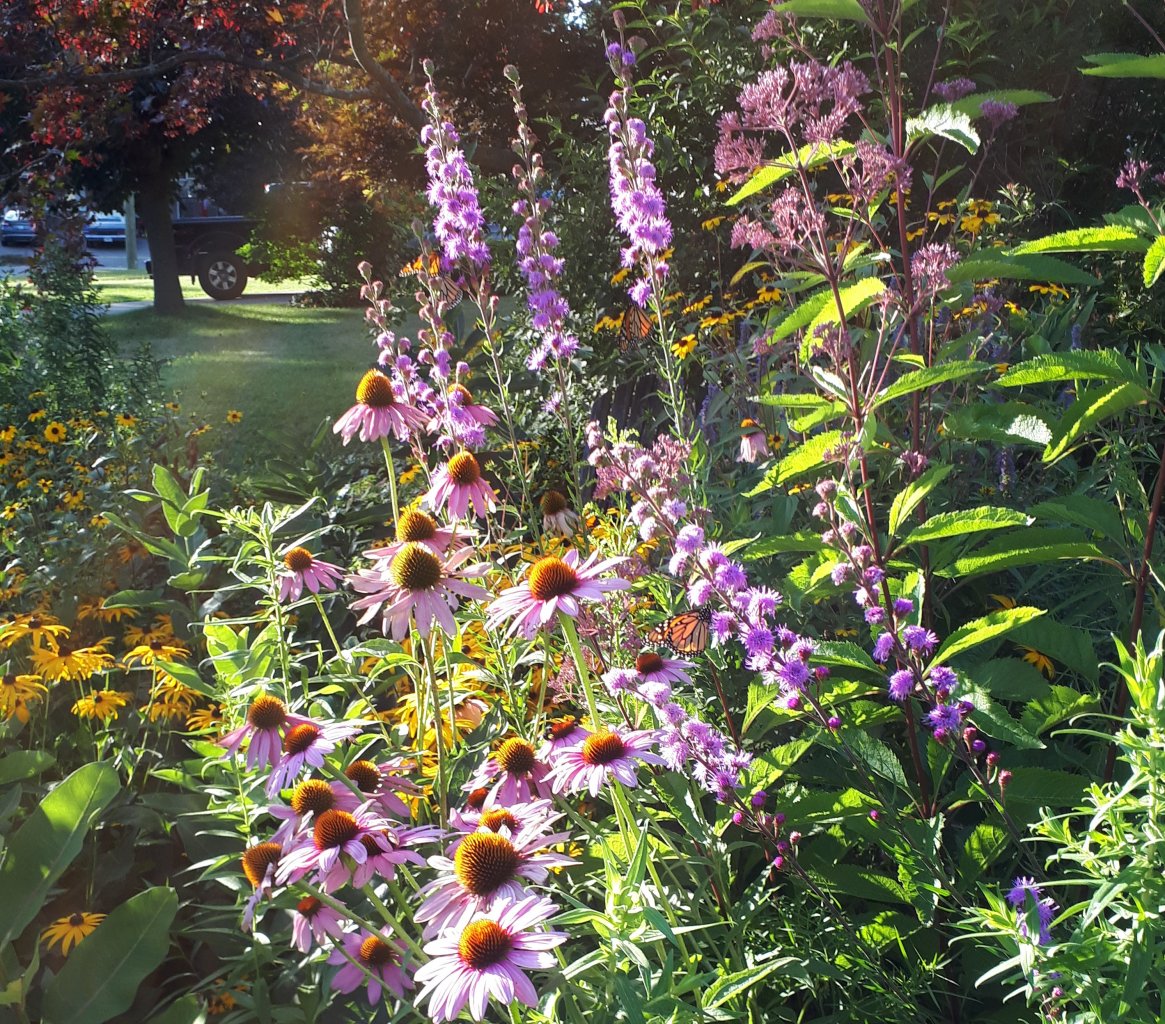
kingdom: Animalia
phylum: Arthropoda
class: Insecta
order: Lepidoptera
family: Nymphalidae
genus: Danaus
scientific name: Danaus plexippus
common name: Monarch
